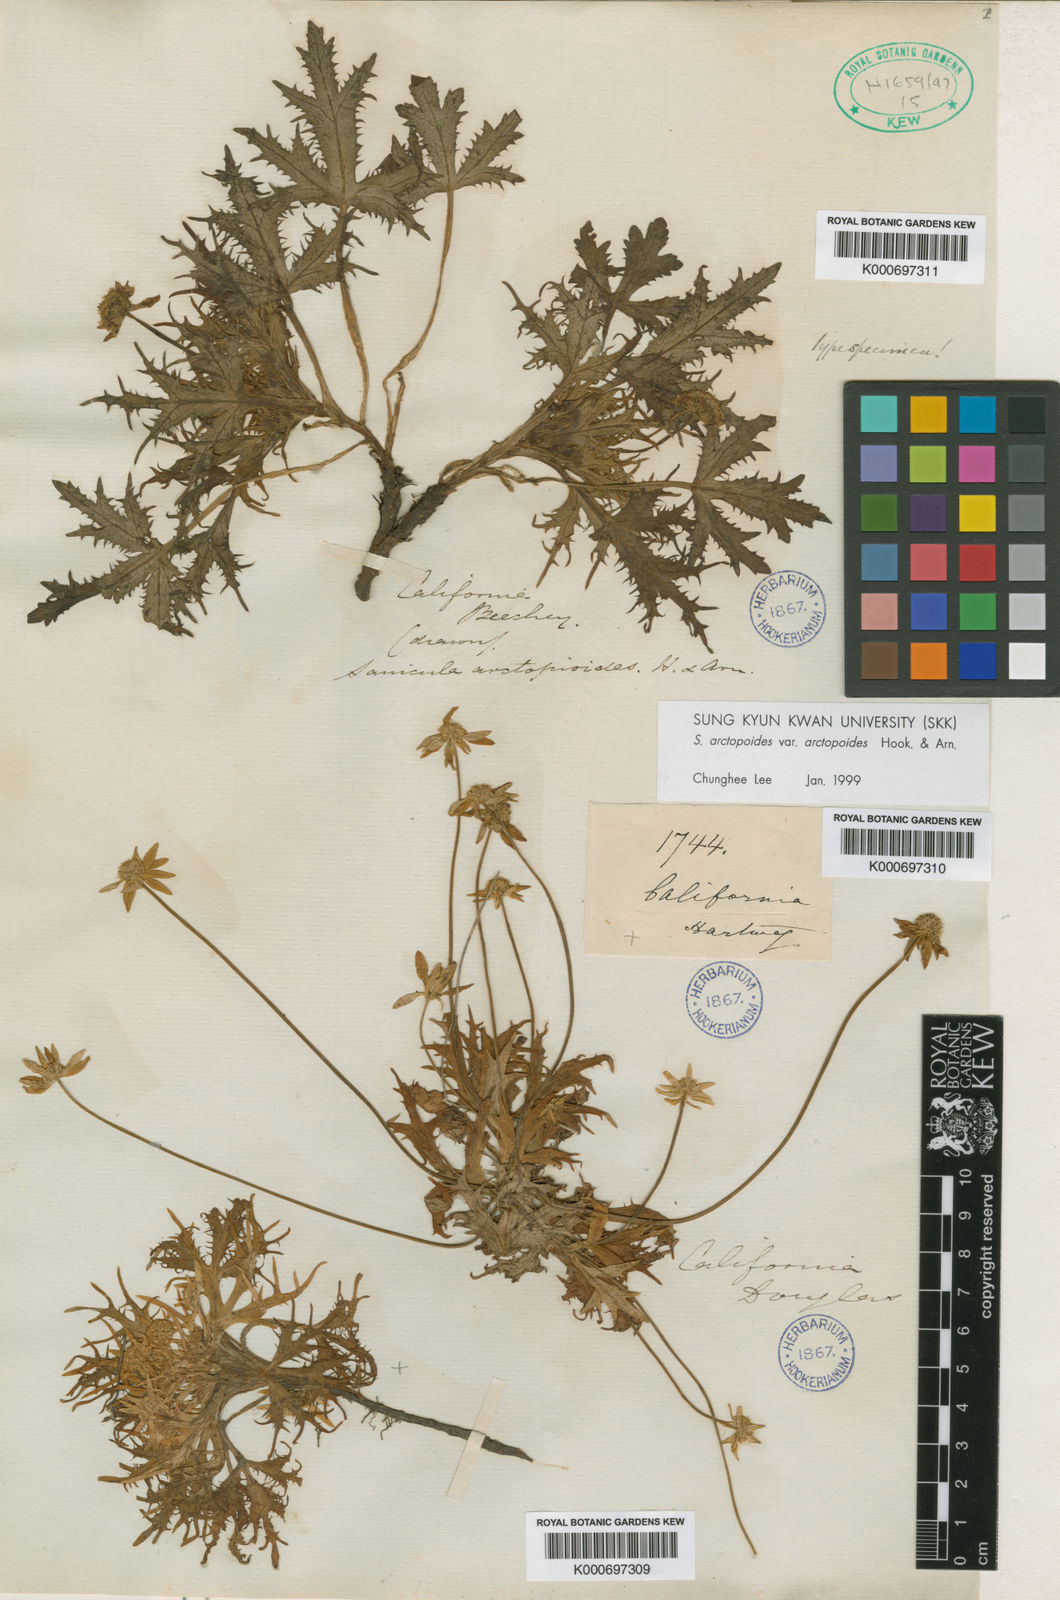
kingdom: Plantae
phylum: Tracheophyta
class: Magnoliopsida
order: Apiales
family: Apiaceae
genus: Sanicula
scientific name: Sanicula arctopoides
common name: Footsteps-of-spring
